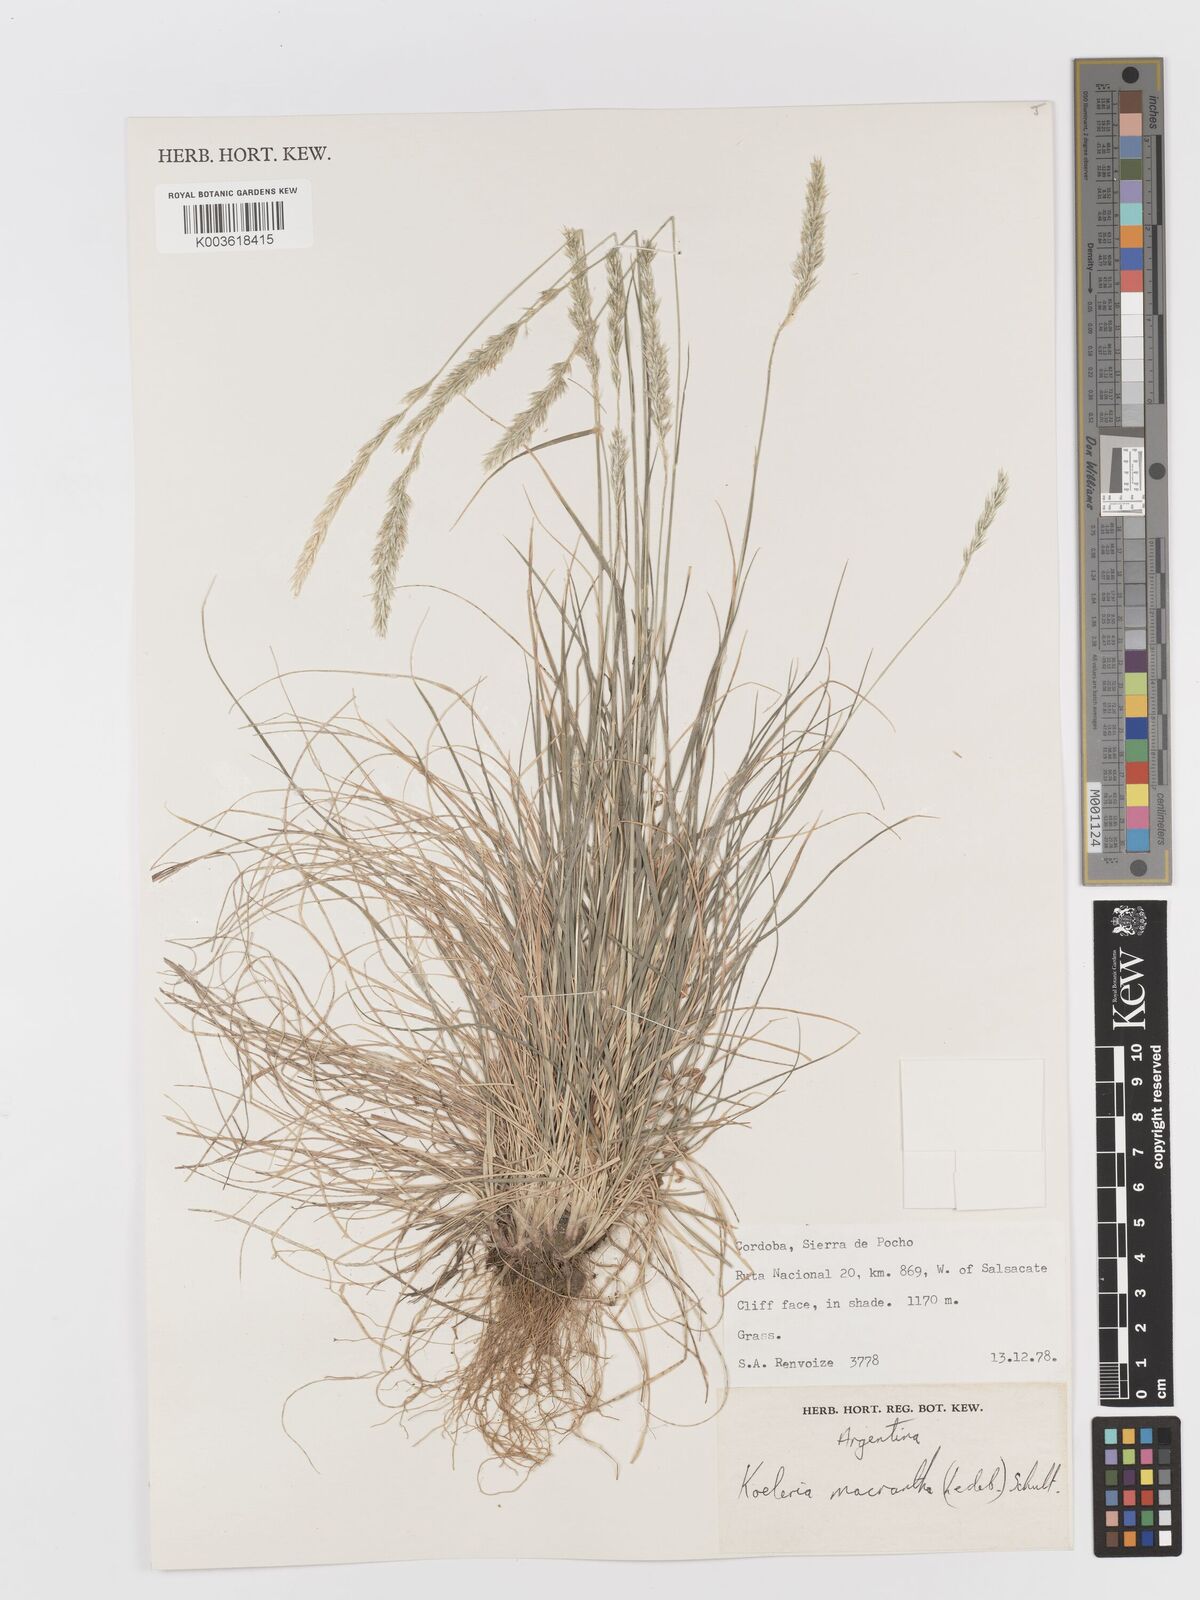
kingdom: Plantae
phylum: Tracheophyta
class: Liliopsida
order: Poales
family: Poaceae
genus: Koeleria
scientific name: Koeleria
